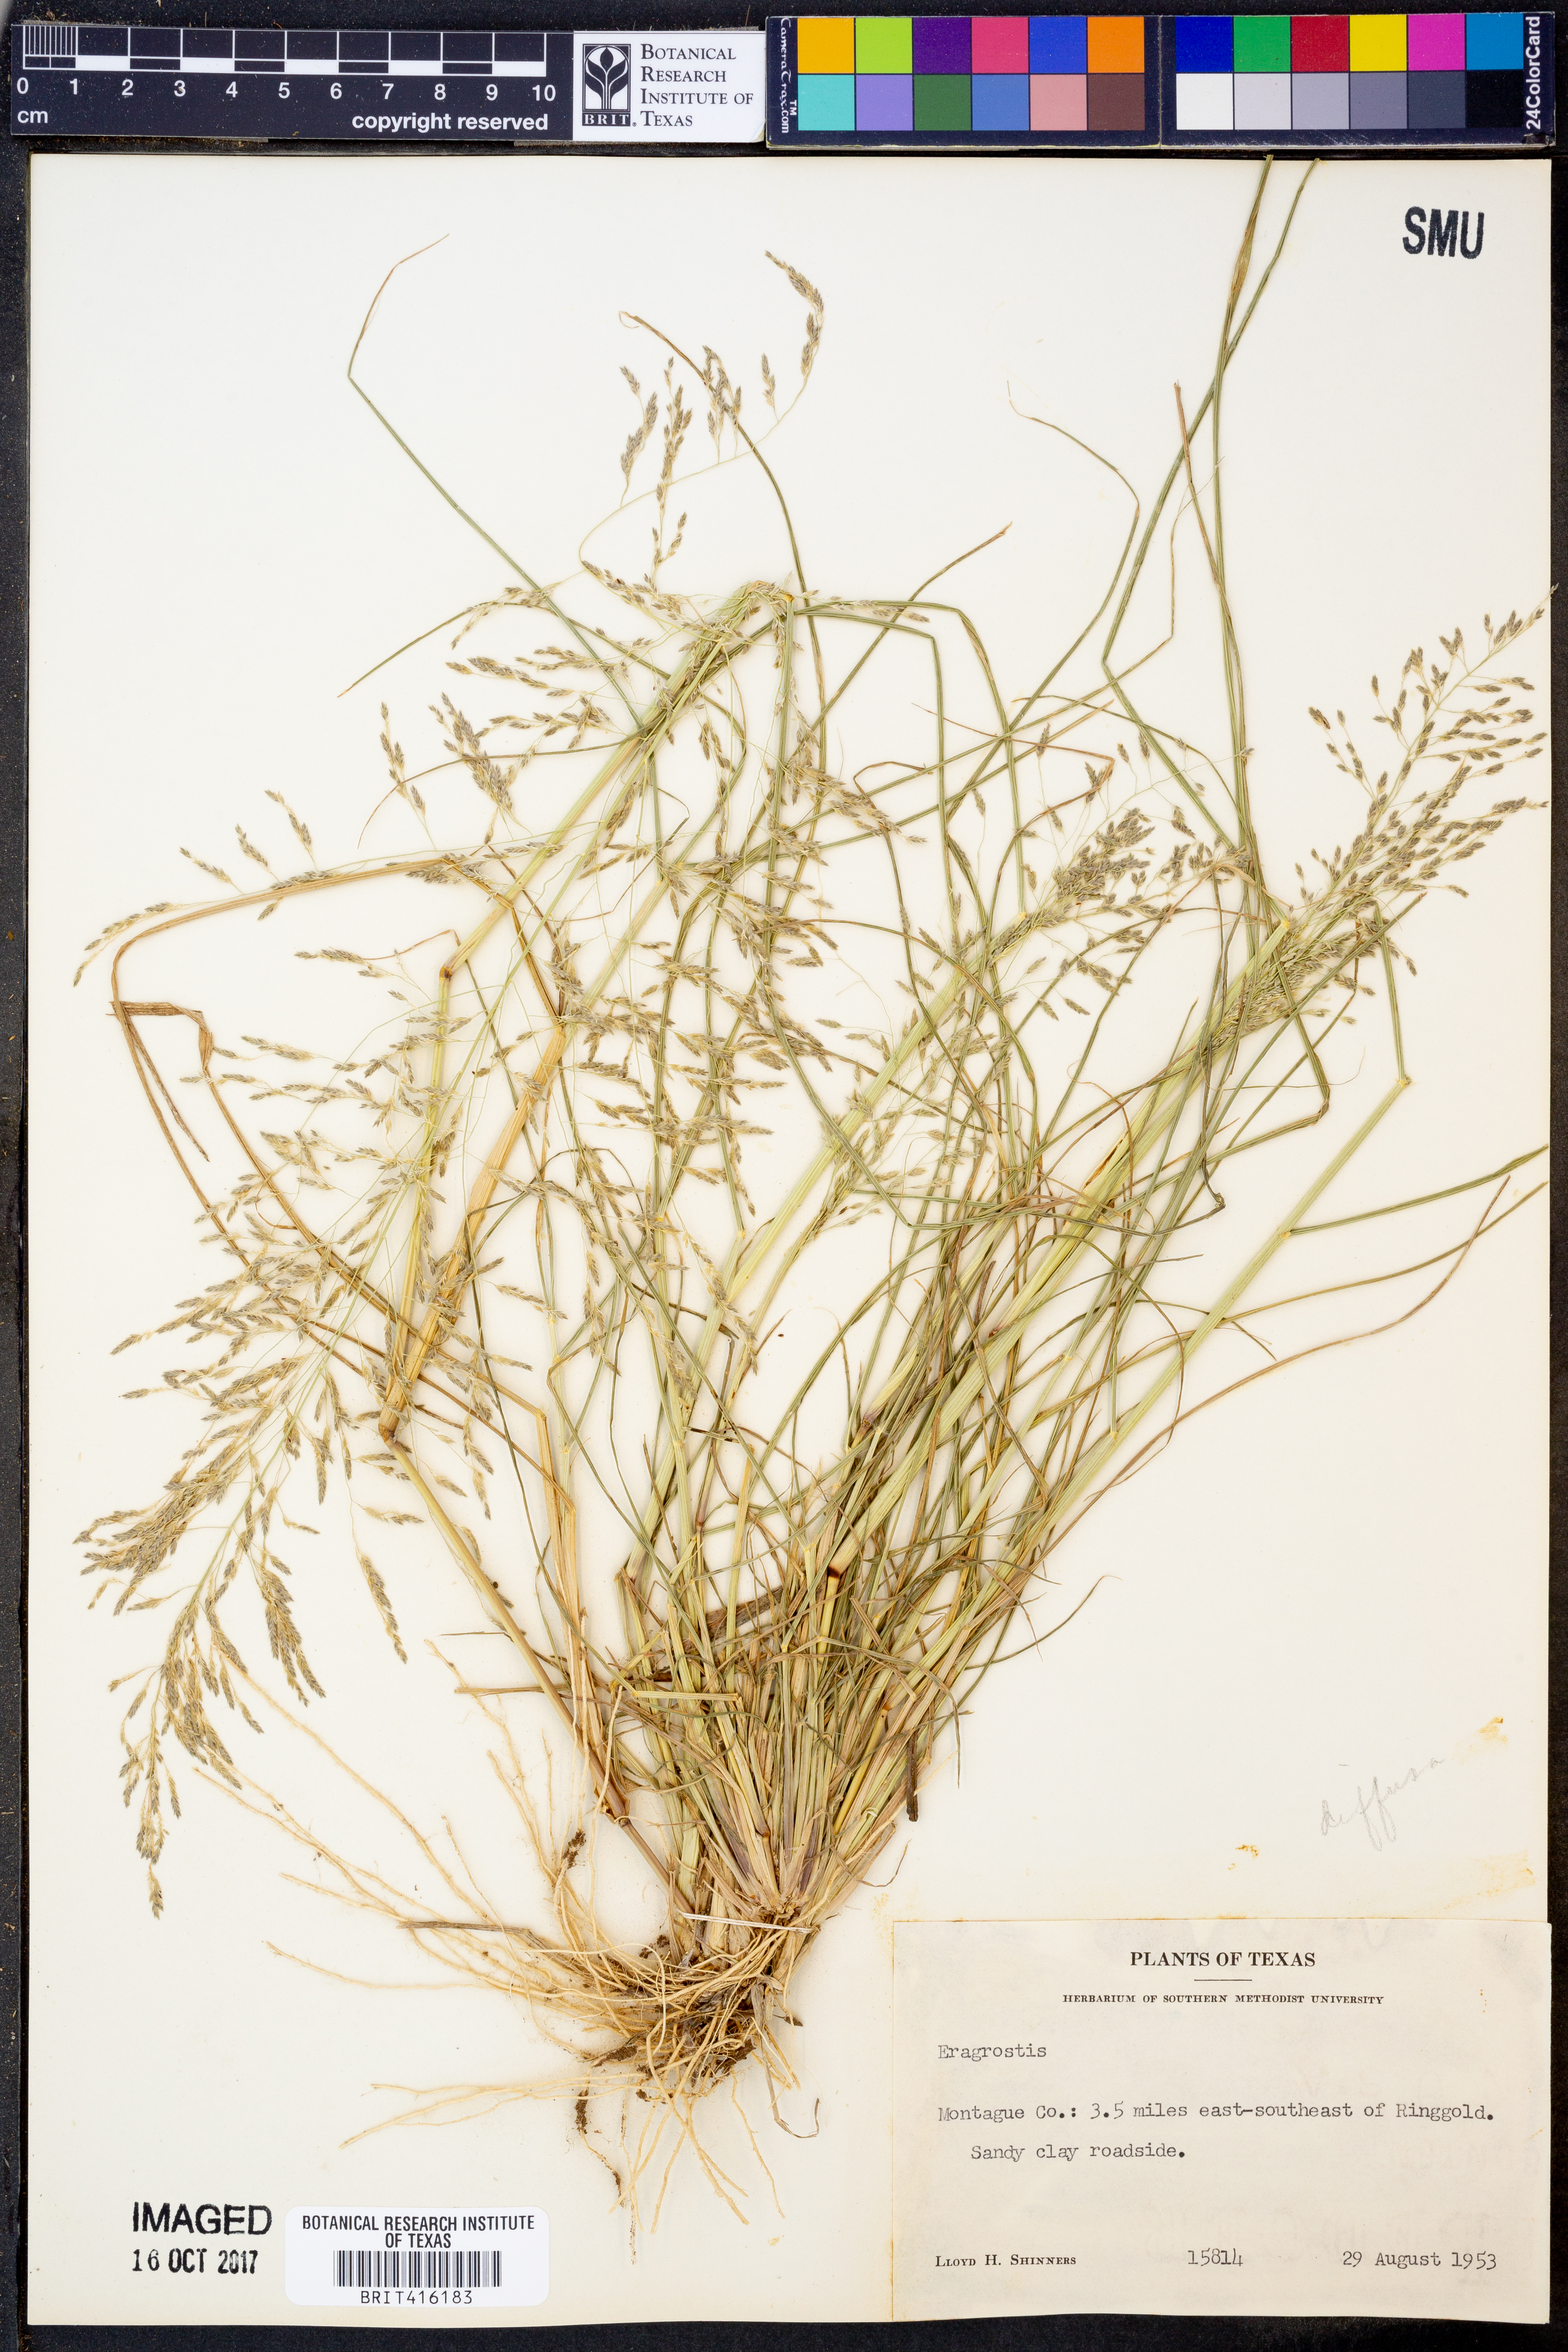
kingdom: Plantae
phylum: Tracheophyta
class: Liliopsida
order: Poales
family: Poaceae
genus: Eragrostis
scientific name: Eragrostis
